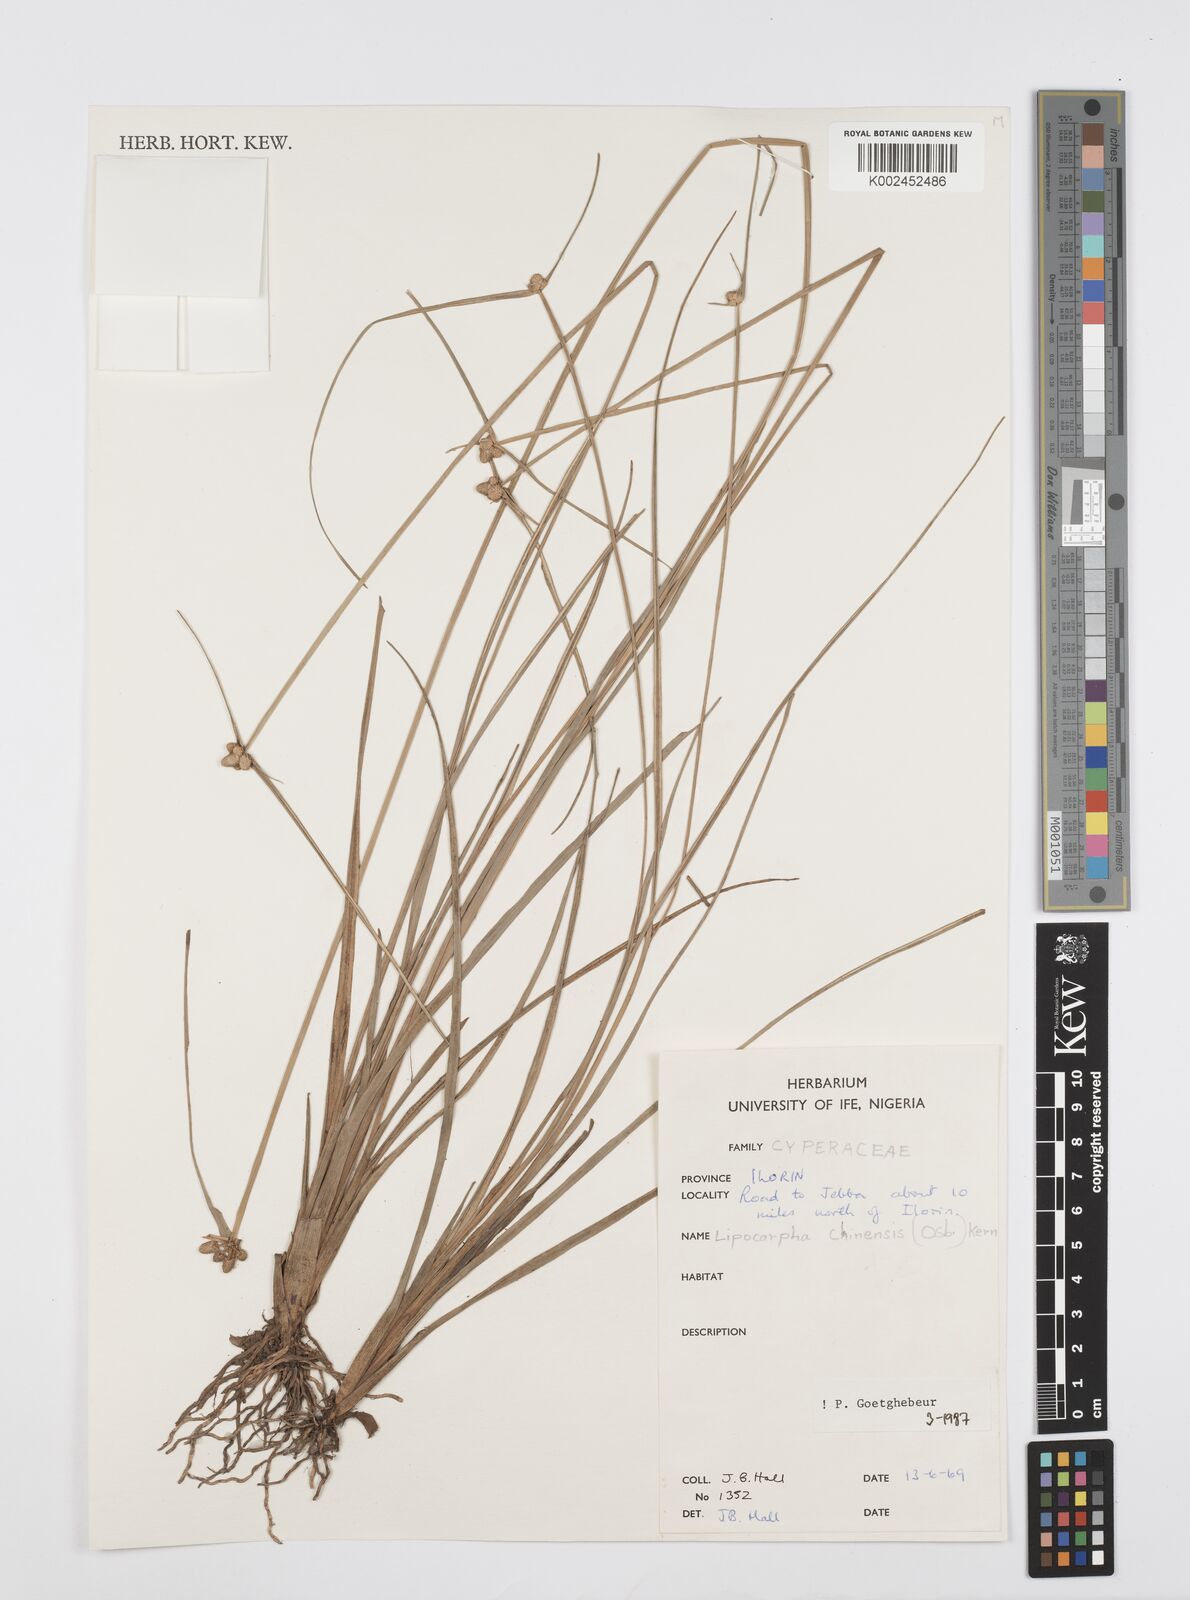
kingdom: Plantae
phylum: Tracheophyta
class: Liliopsida
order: Poales
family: Cyperaceae
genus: Cyperus
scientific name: Cyperus albescens
